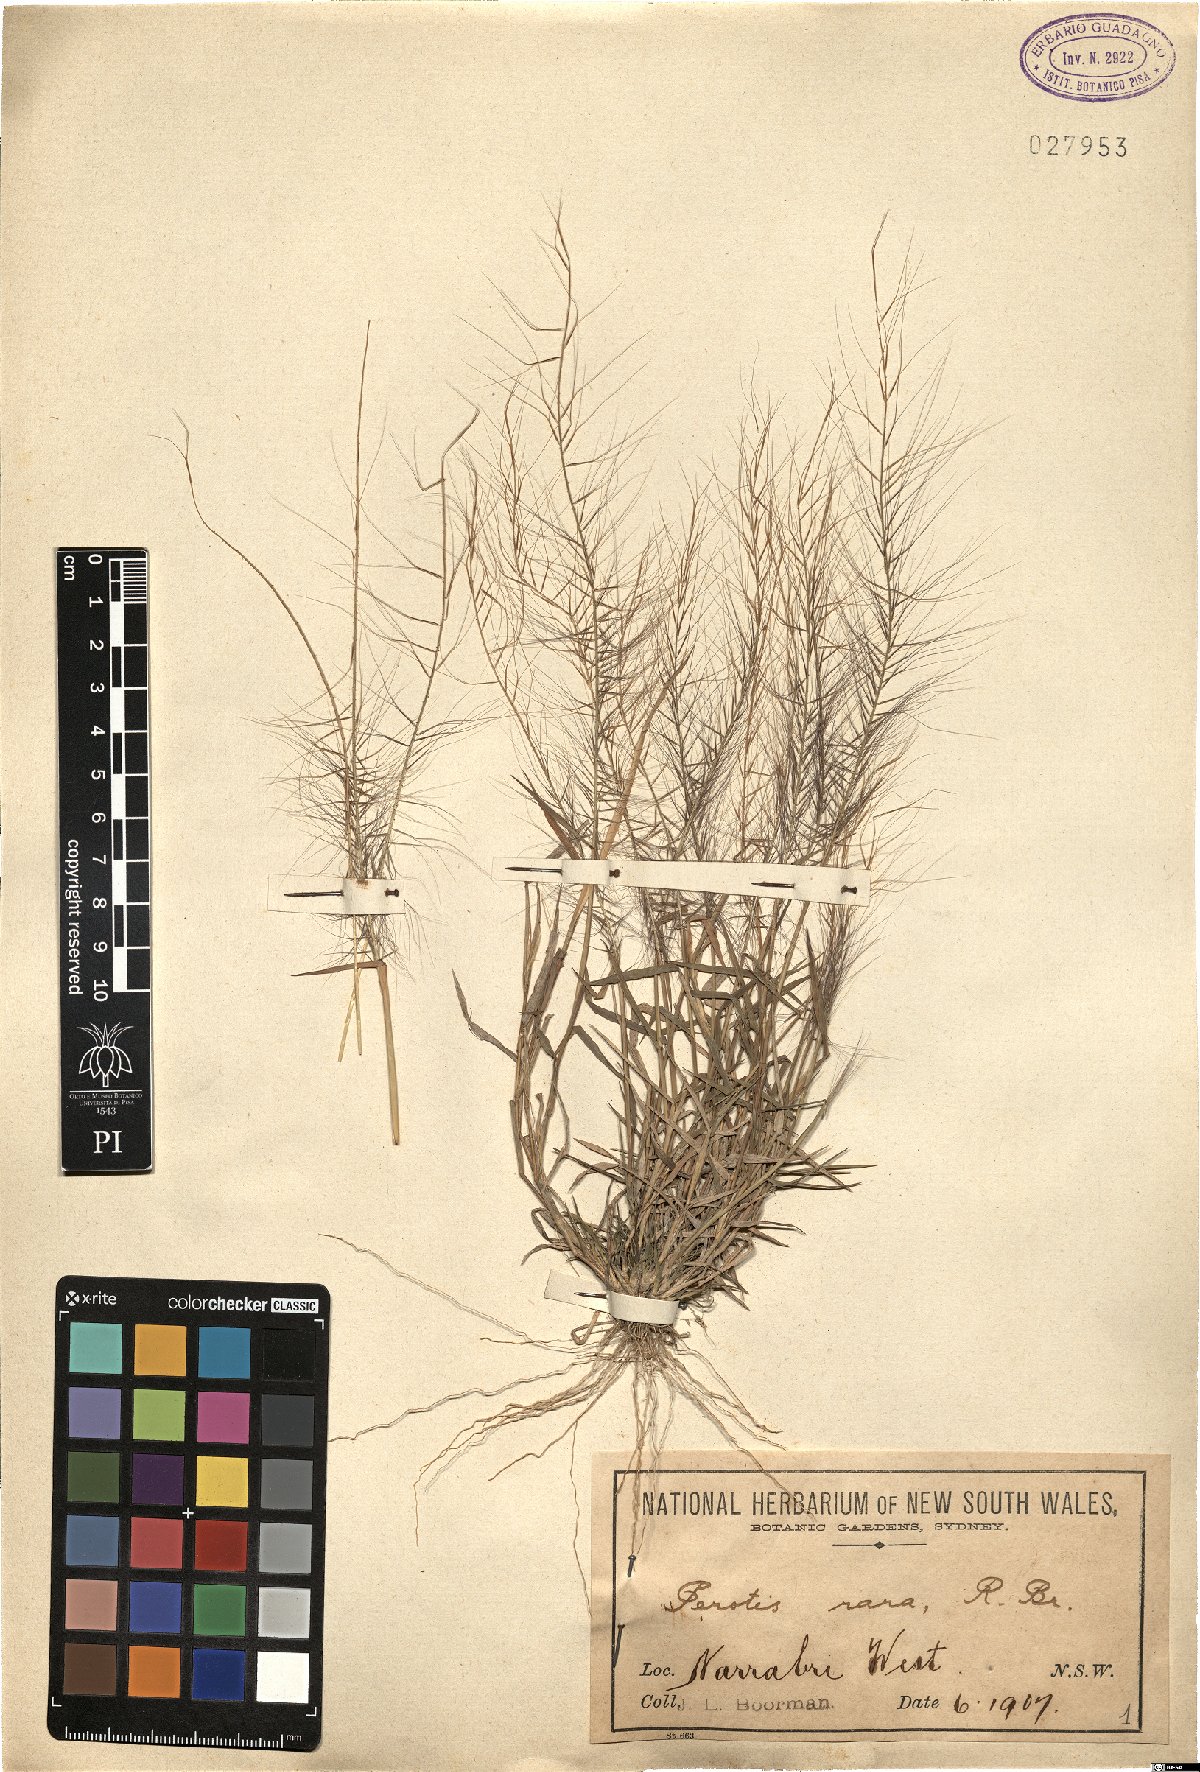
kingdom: Plantae
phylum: Tracheophyta
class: Liliopsida
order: Poales
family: Poaceae
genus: Perotis
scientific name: Perotis rara
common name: Comet grass
